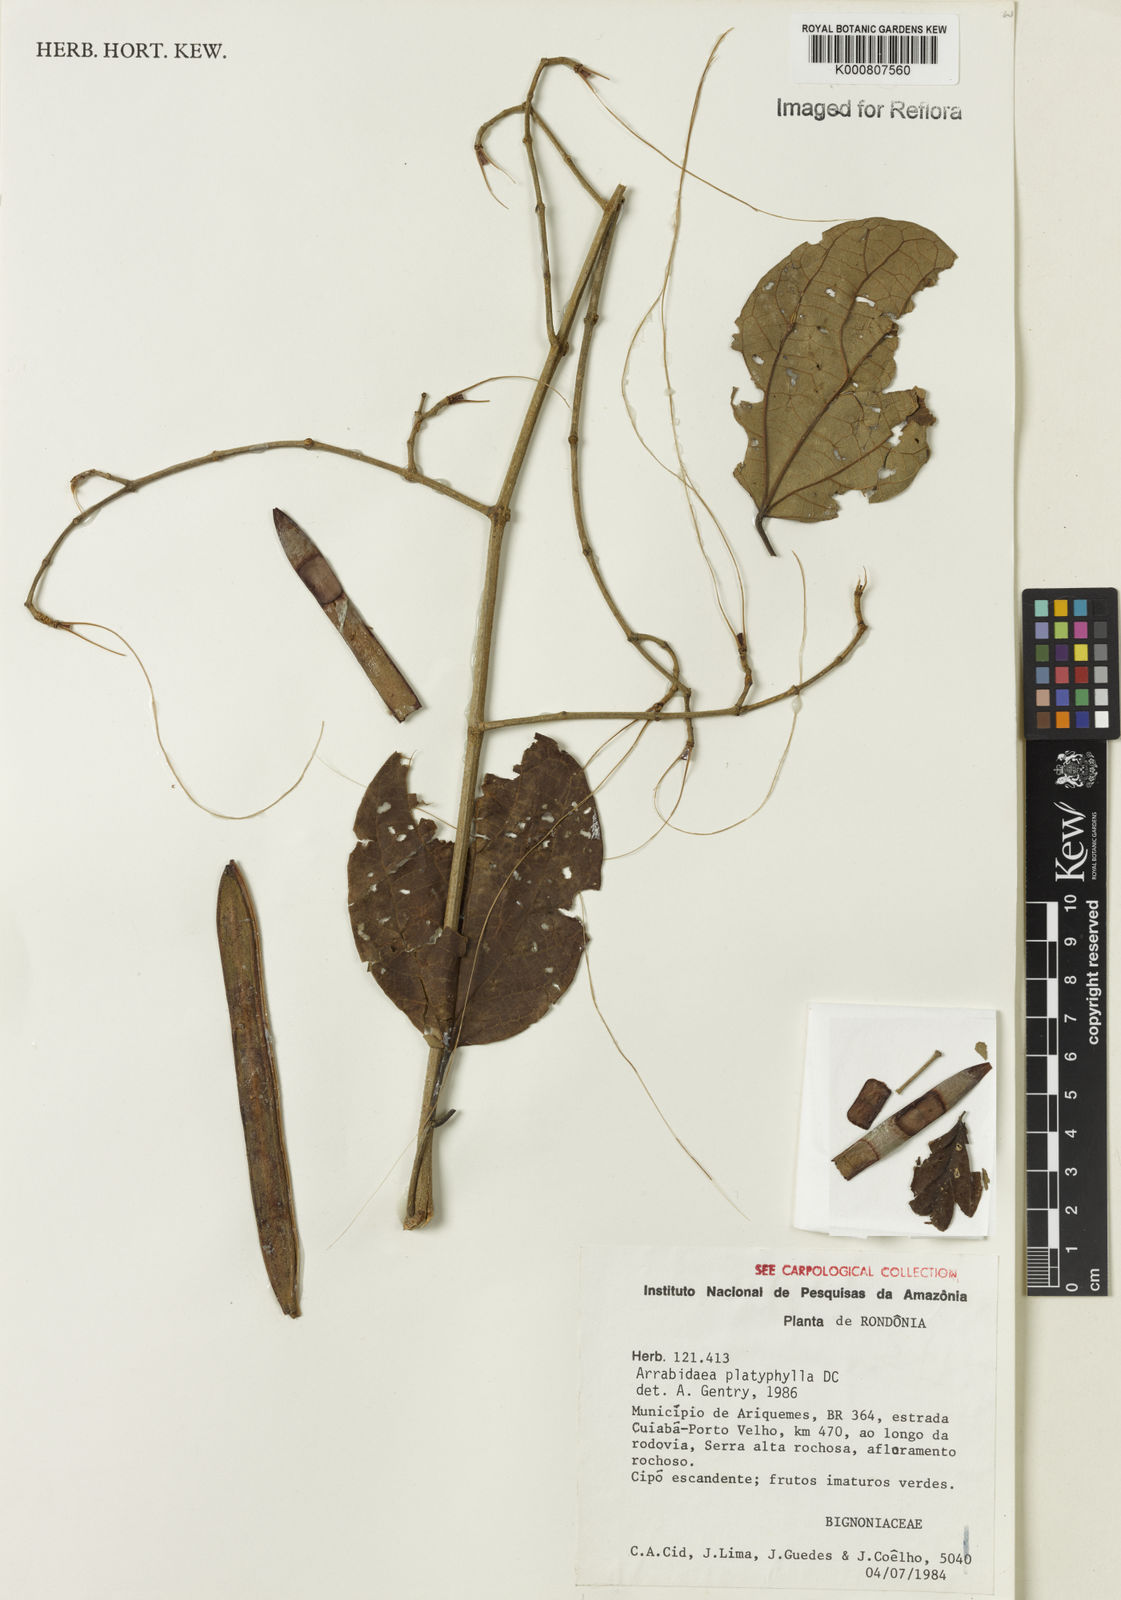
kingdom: Plantae
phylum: Tracheophyta
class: Magnoliopsida
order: Lamiales
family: Bignoniaceae
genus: Xylophragma
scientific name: Xylophragma platyphyllum
